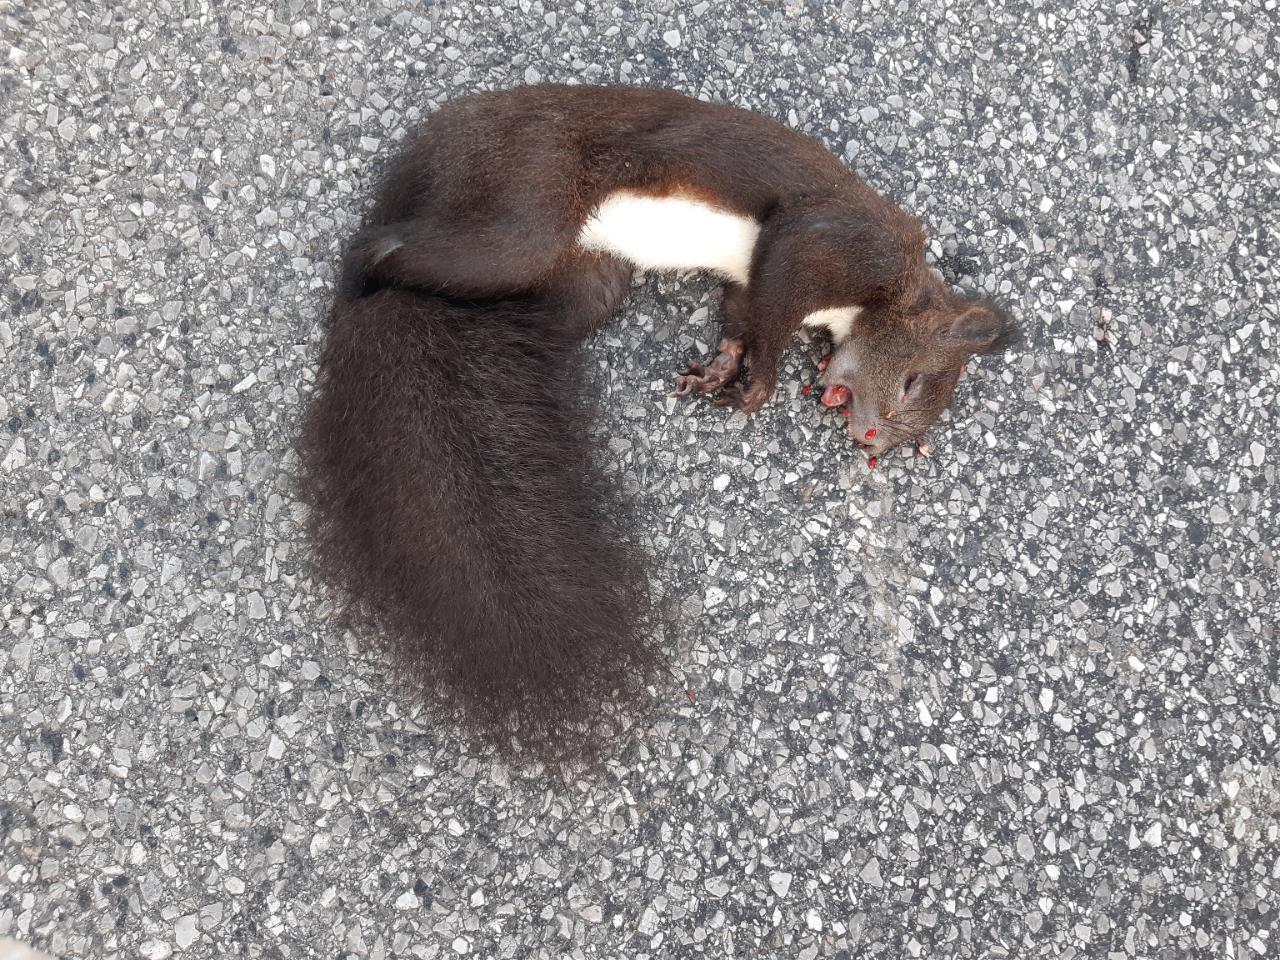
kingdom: Animalia
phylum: Chordata
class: Mammalia
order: Rodentia
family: Sciuridae
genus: Sciurus
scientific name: Sciurus vulgaris
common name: Eurasian red squirrel
